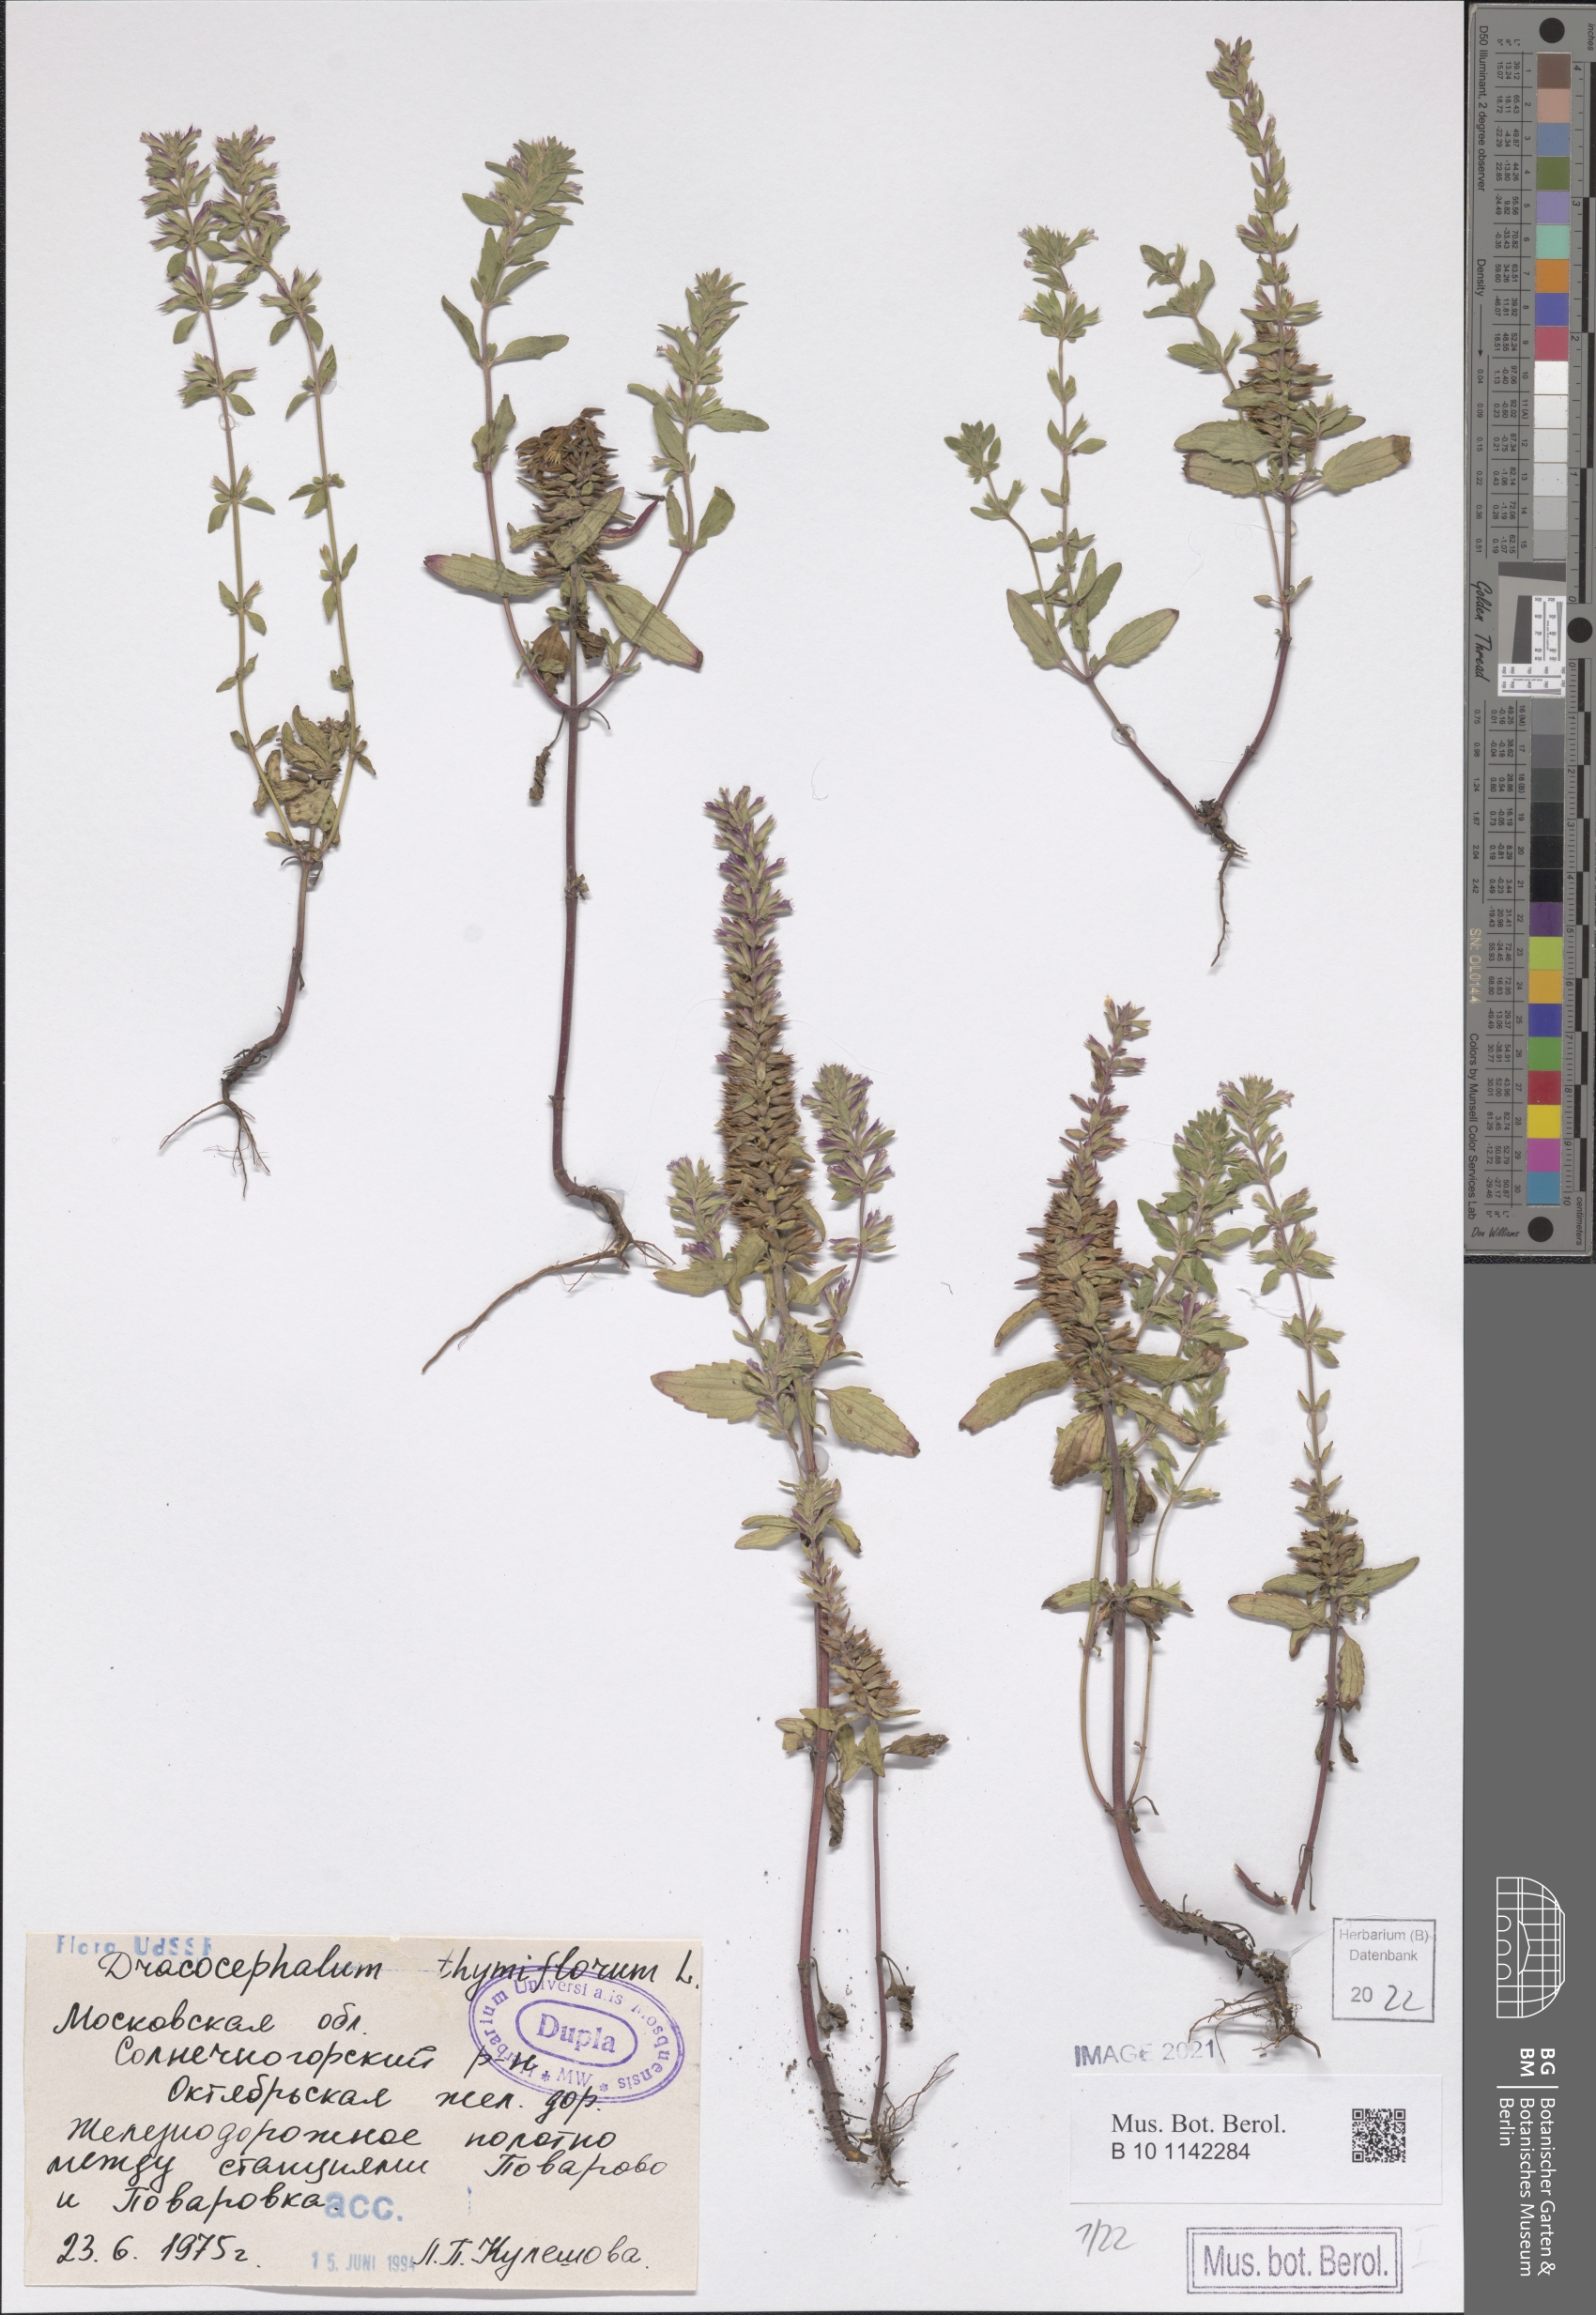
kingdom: Plantae
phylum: Tracheophyta
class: Magnoliopsida
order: Lamiales
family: Lamiaceae
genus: Dracocephalum
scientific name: Dracocephalum thymiflorum
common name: Thymeleaf dragonhead
